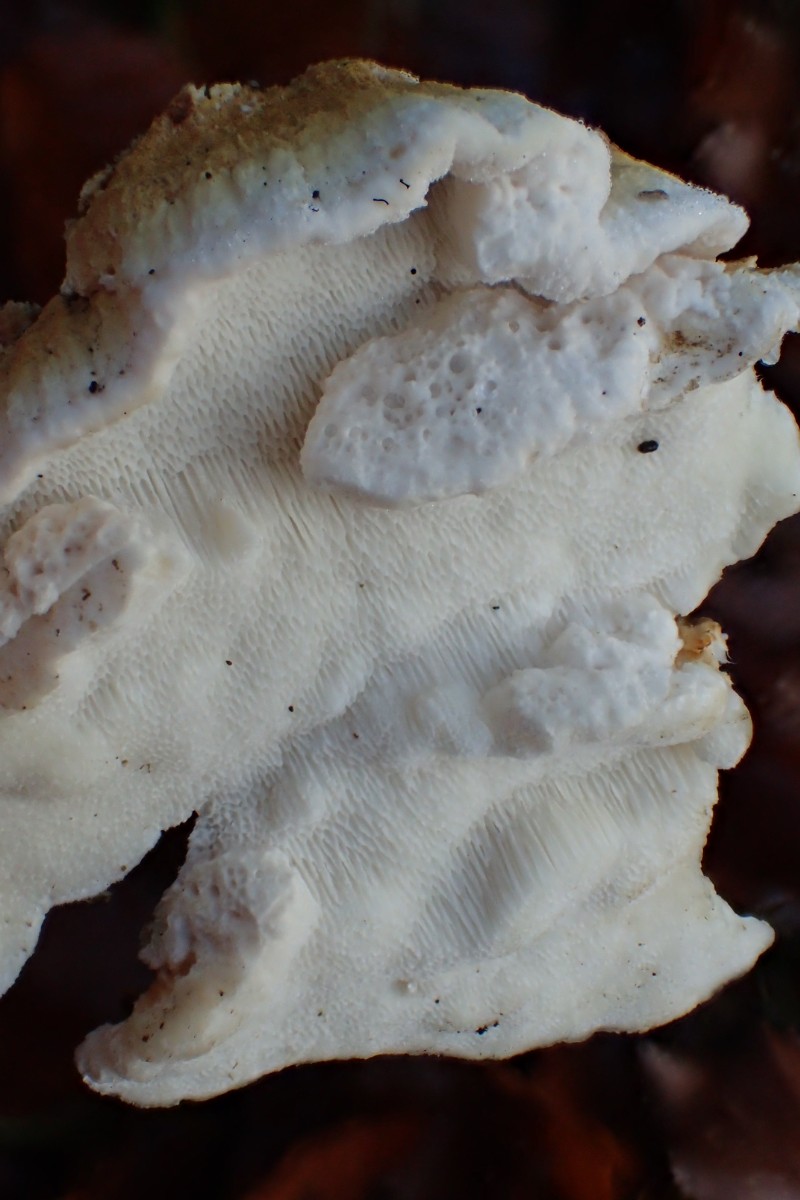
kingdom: Fungi
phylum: Basidiomycota
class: Agaricomycetes
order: Polyporales
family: Fomitopsidaceae
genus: Neoantrodia
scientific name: Neoantrodia serialis
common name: række-sejporesvamp
